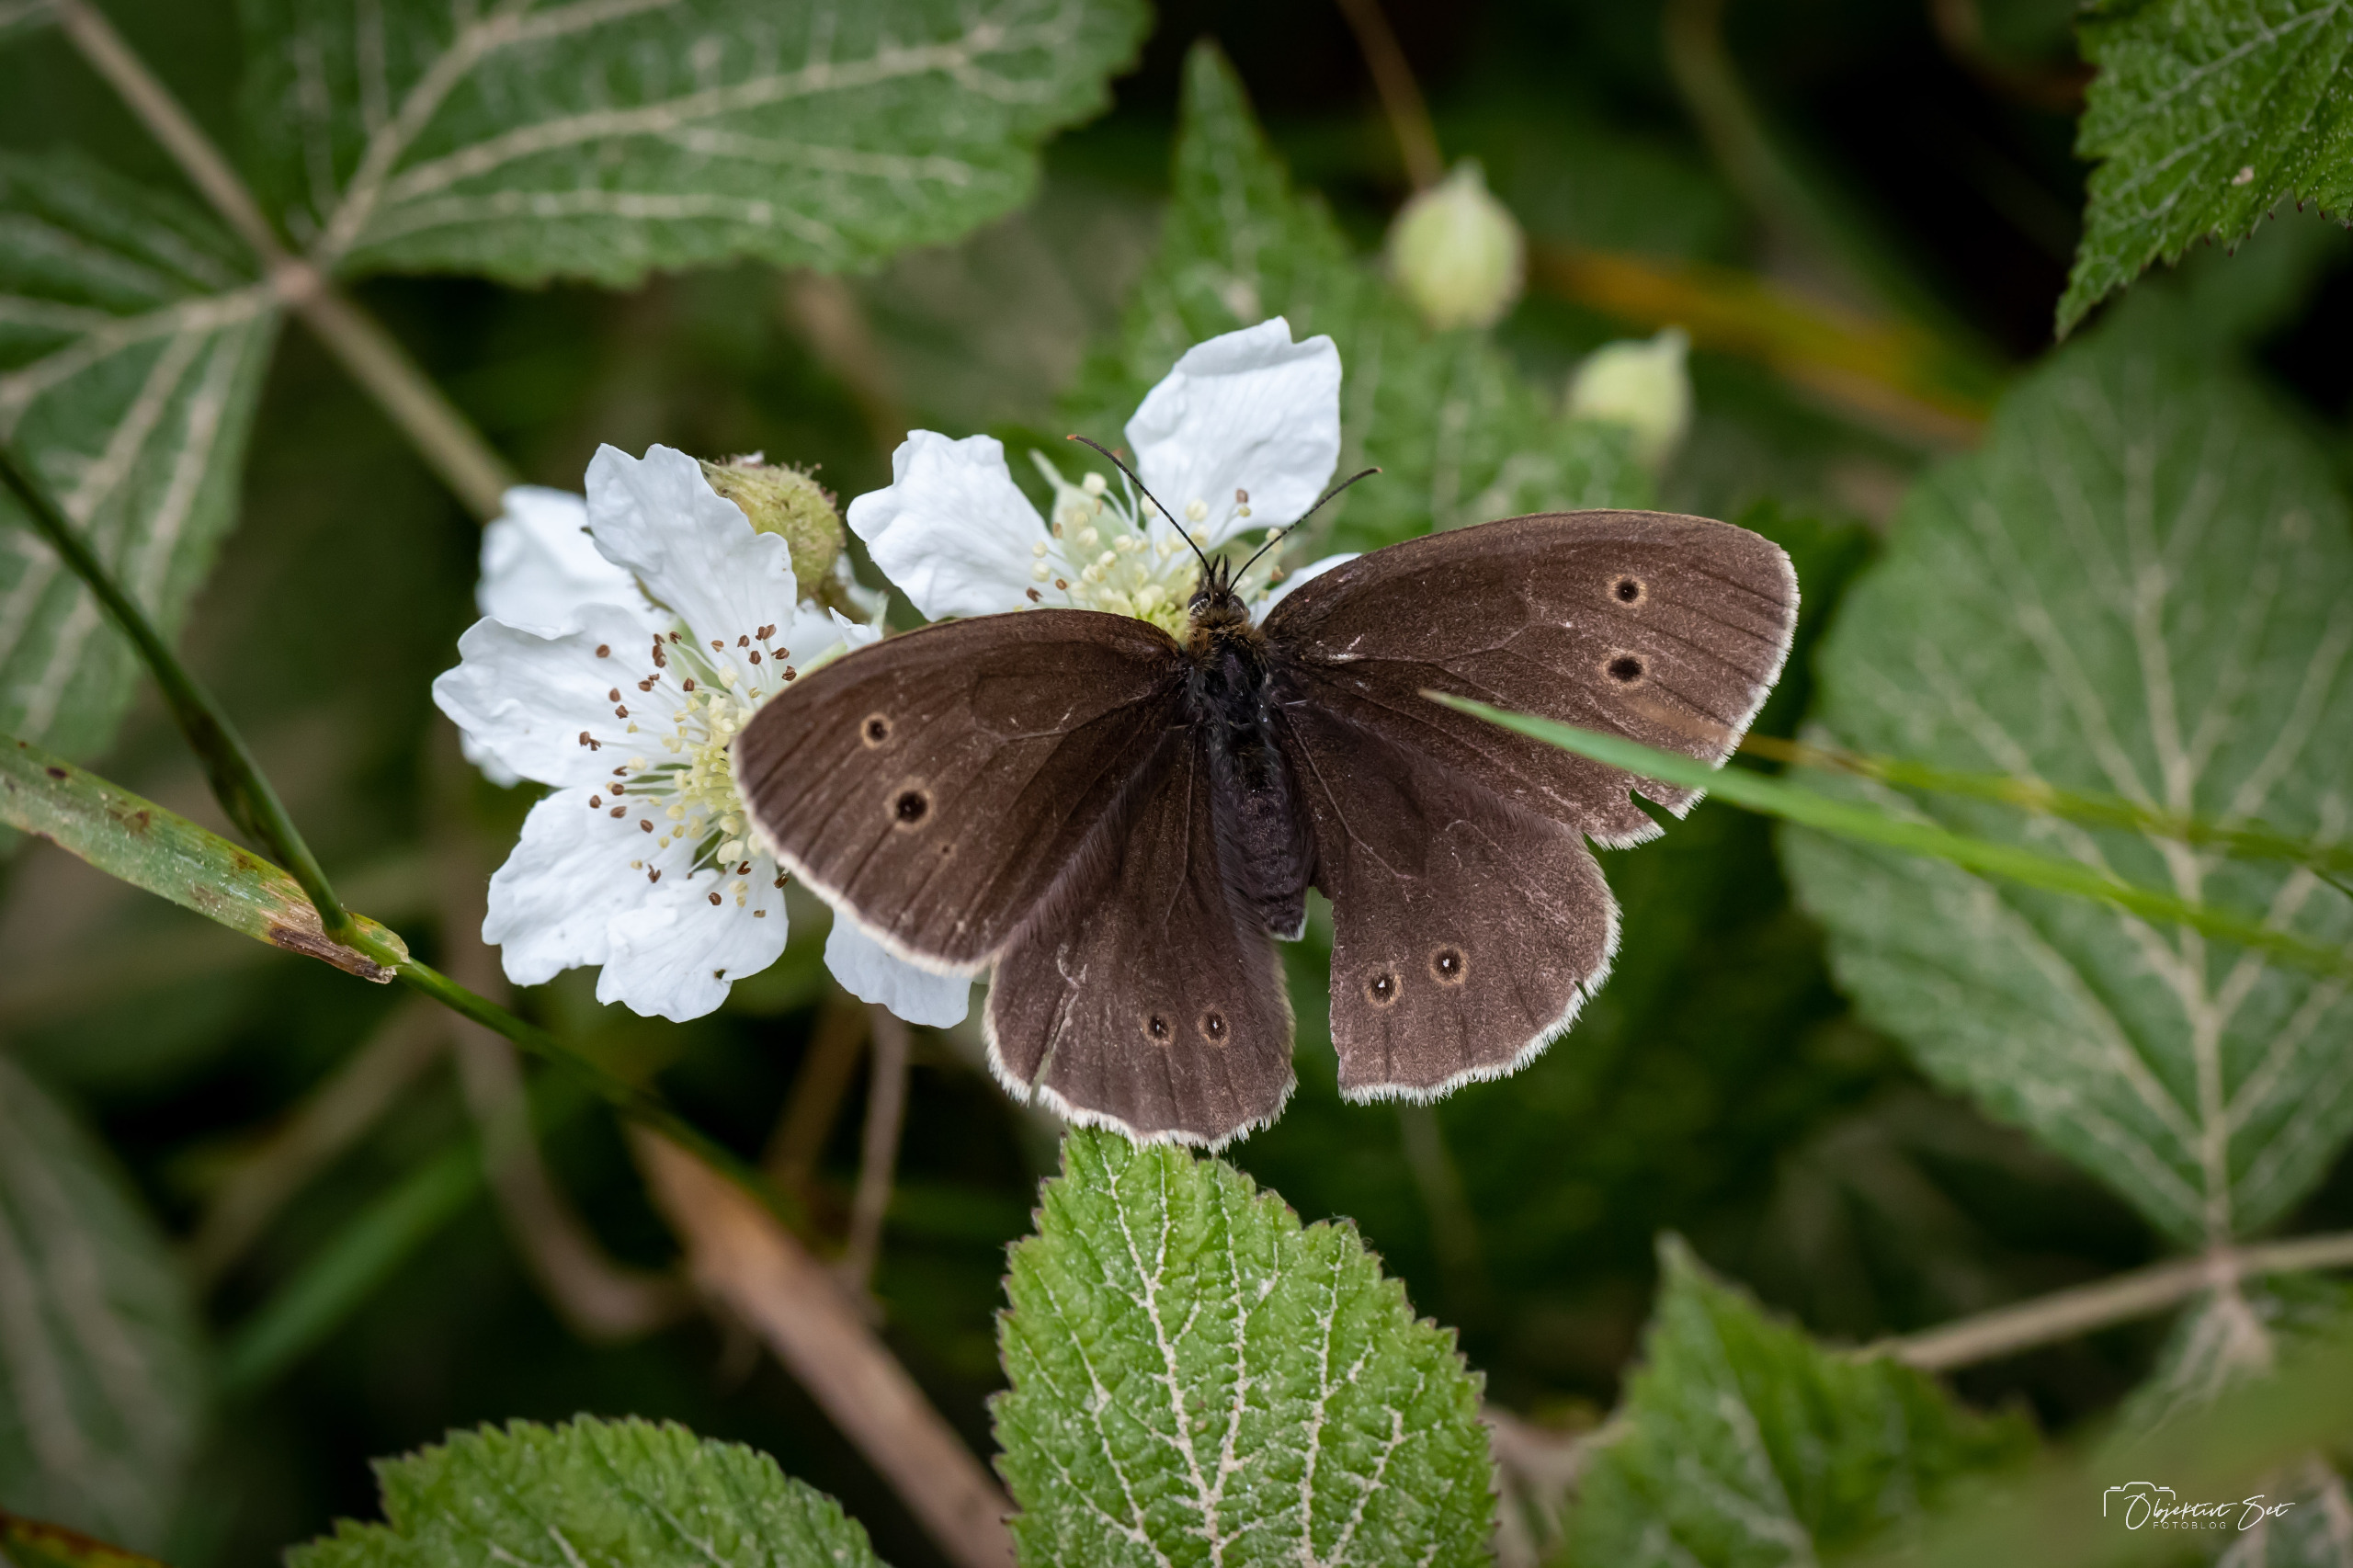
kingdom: Animalia
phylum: Arthropoda
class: Insecta
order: Lepidoptera
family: Nymphalidae
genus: Aphantopus
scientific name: Aphantopus hyperantus
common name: Engrandøje
